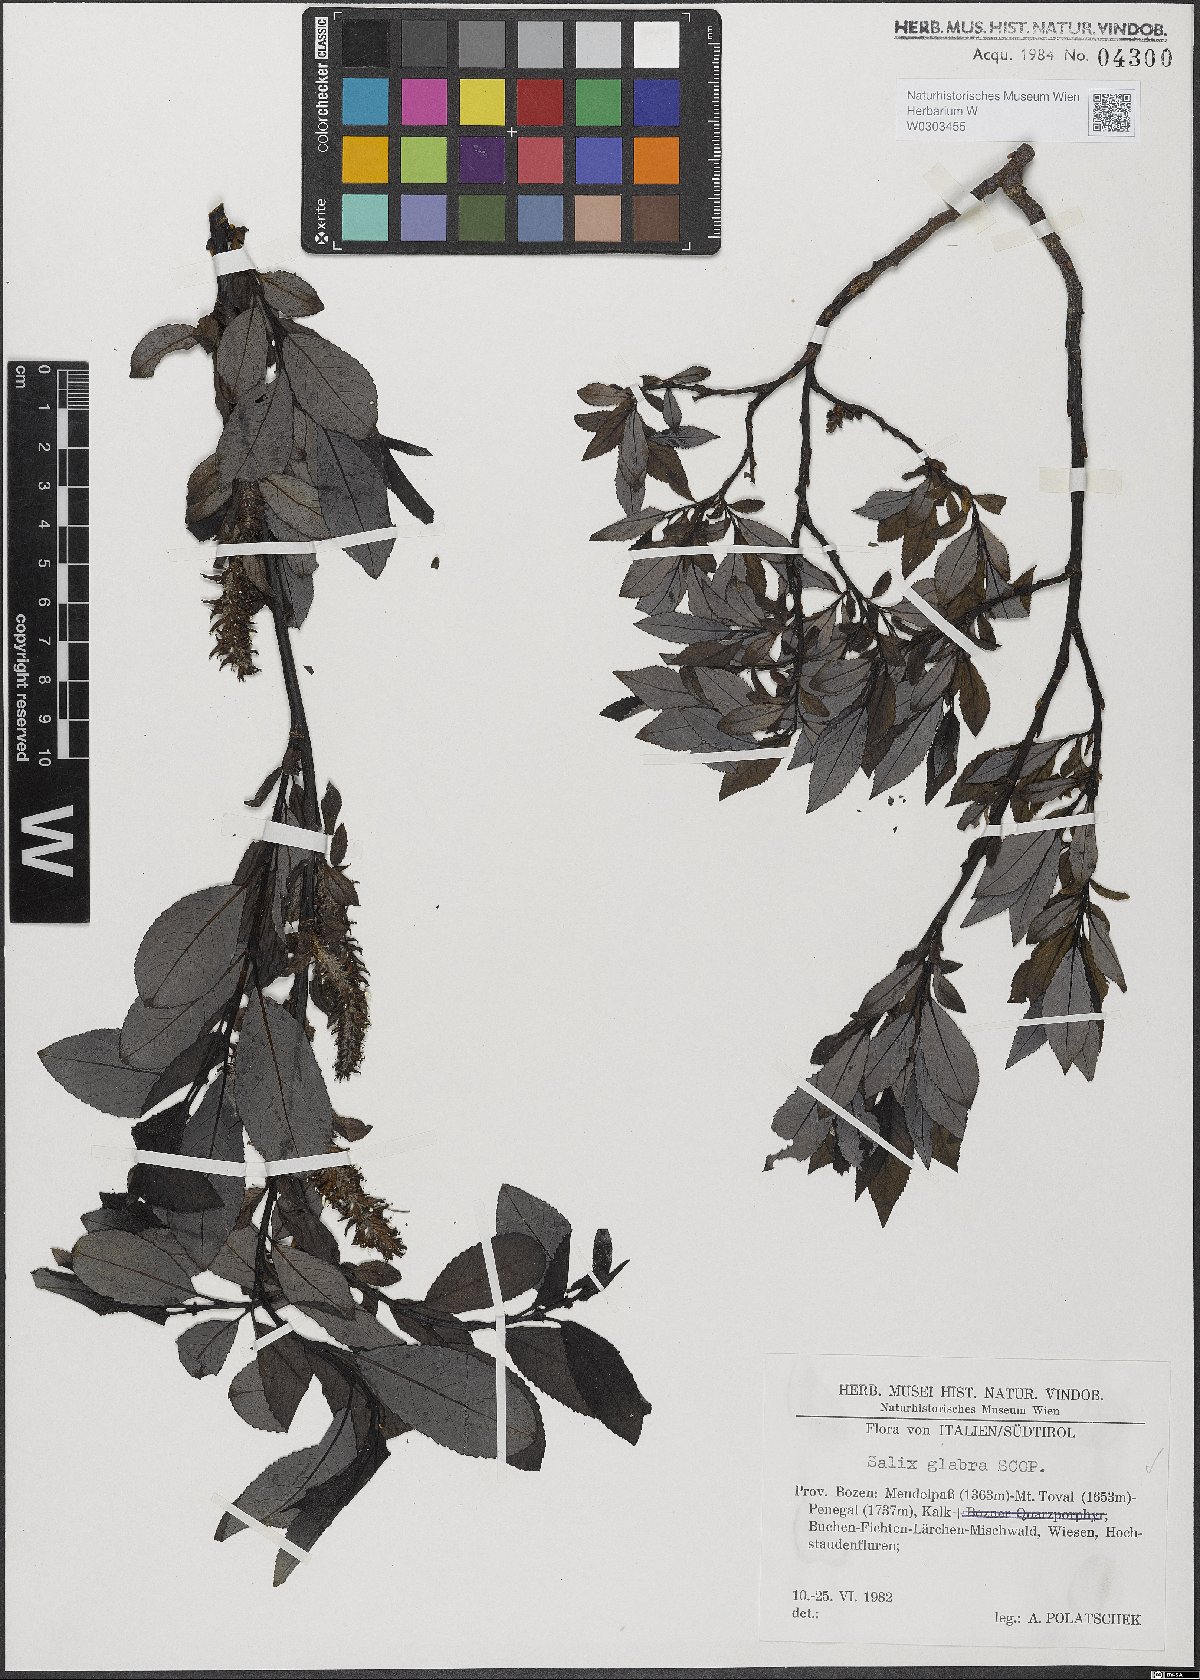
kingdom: Plantae
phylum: Tracheophyta
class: Magnoliopsida
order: Malpighiales
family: Salicaceae
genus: Salix
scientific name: Salix glabra
